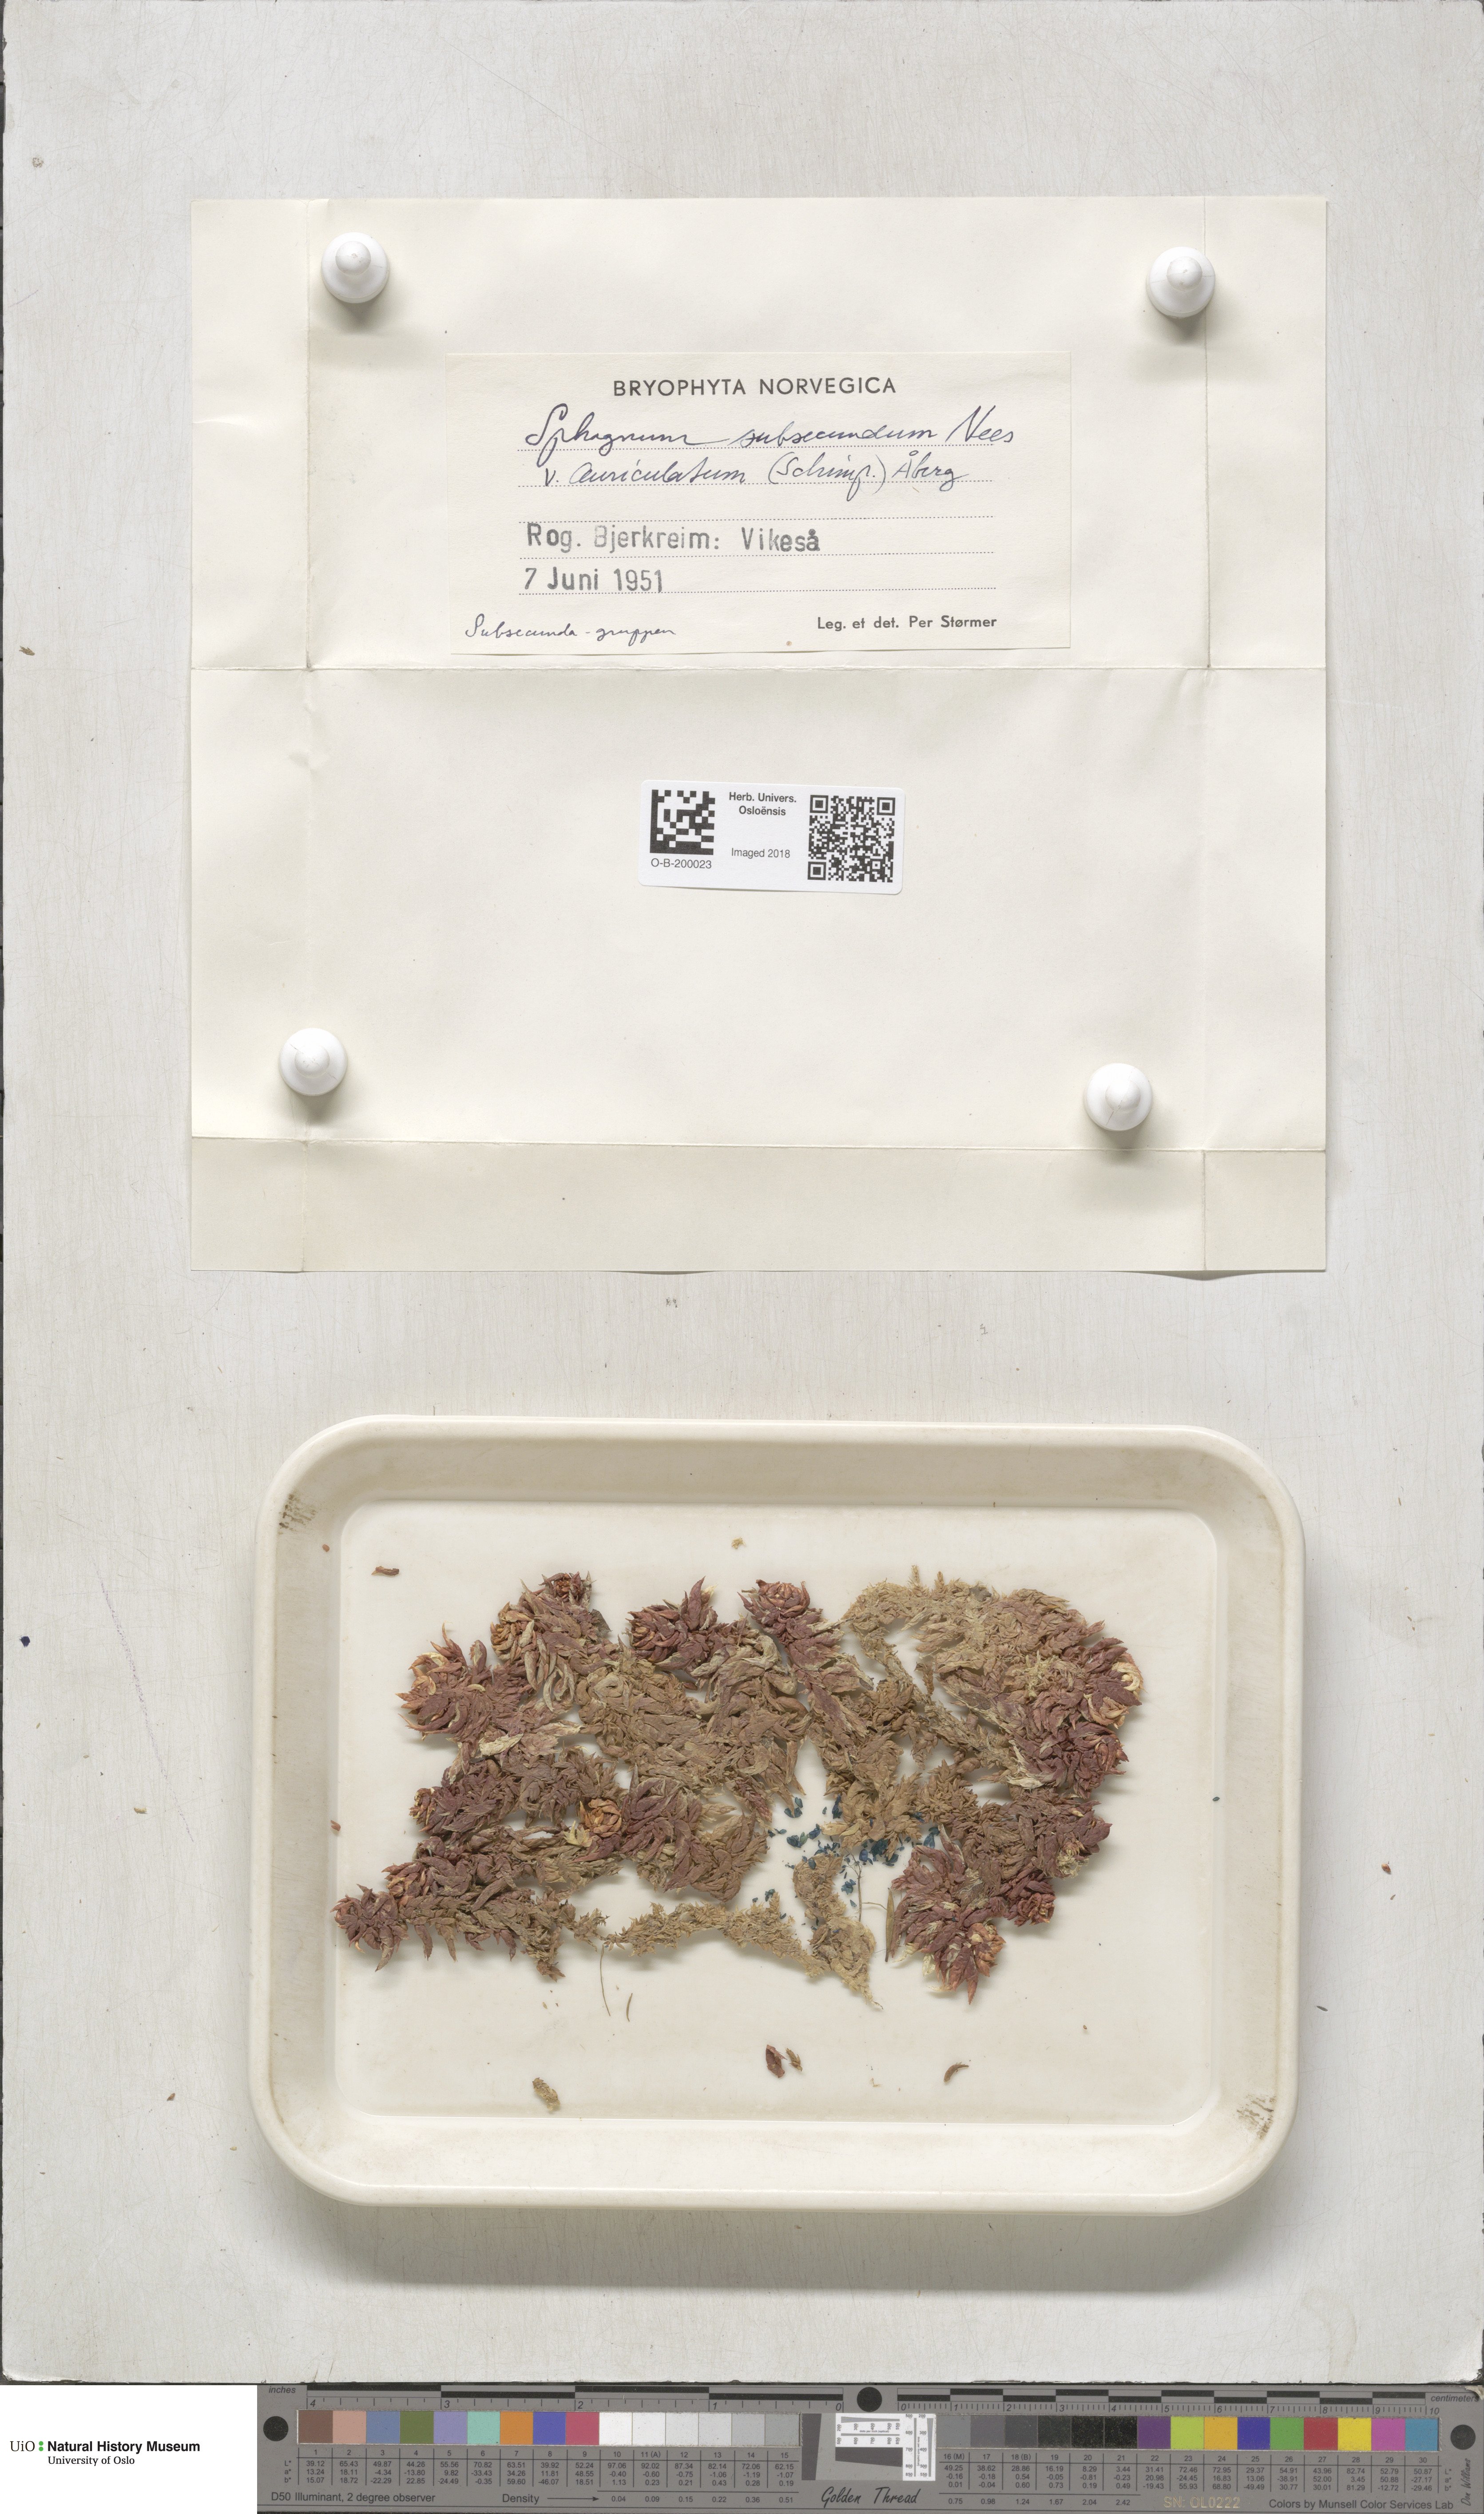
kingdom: Plantae
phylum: Bryophyta
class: Sphagnopsida
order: Sphagnales
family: Sphagnaceae
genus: Sphagnum
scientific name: Sphagnum denticulatum
